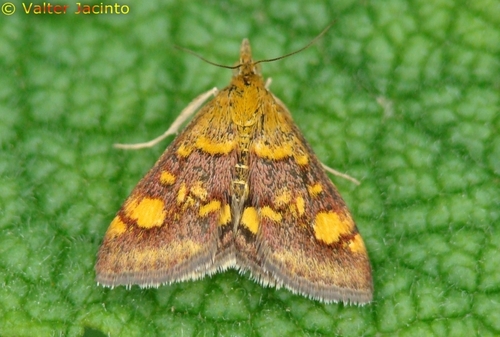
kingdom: Animalia
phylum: Arthropoda
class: Insecta
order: Lepidoptera
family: Crambidae
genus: Pyrausta
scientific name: Pyrausta aurata
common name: Small purple & gold
